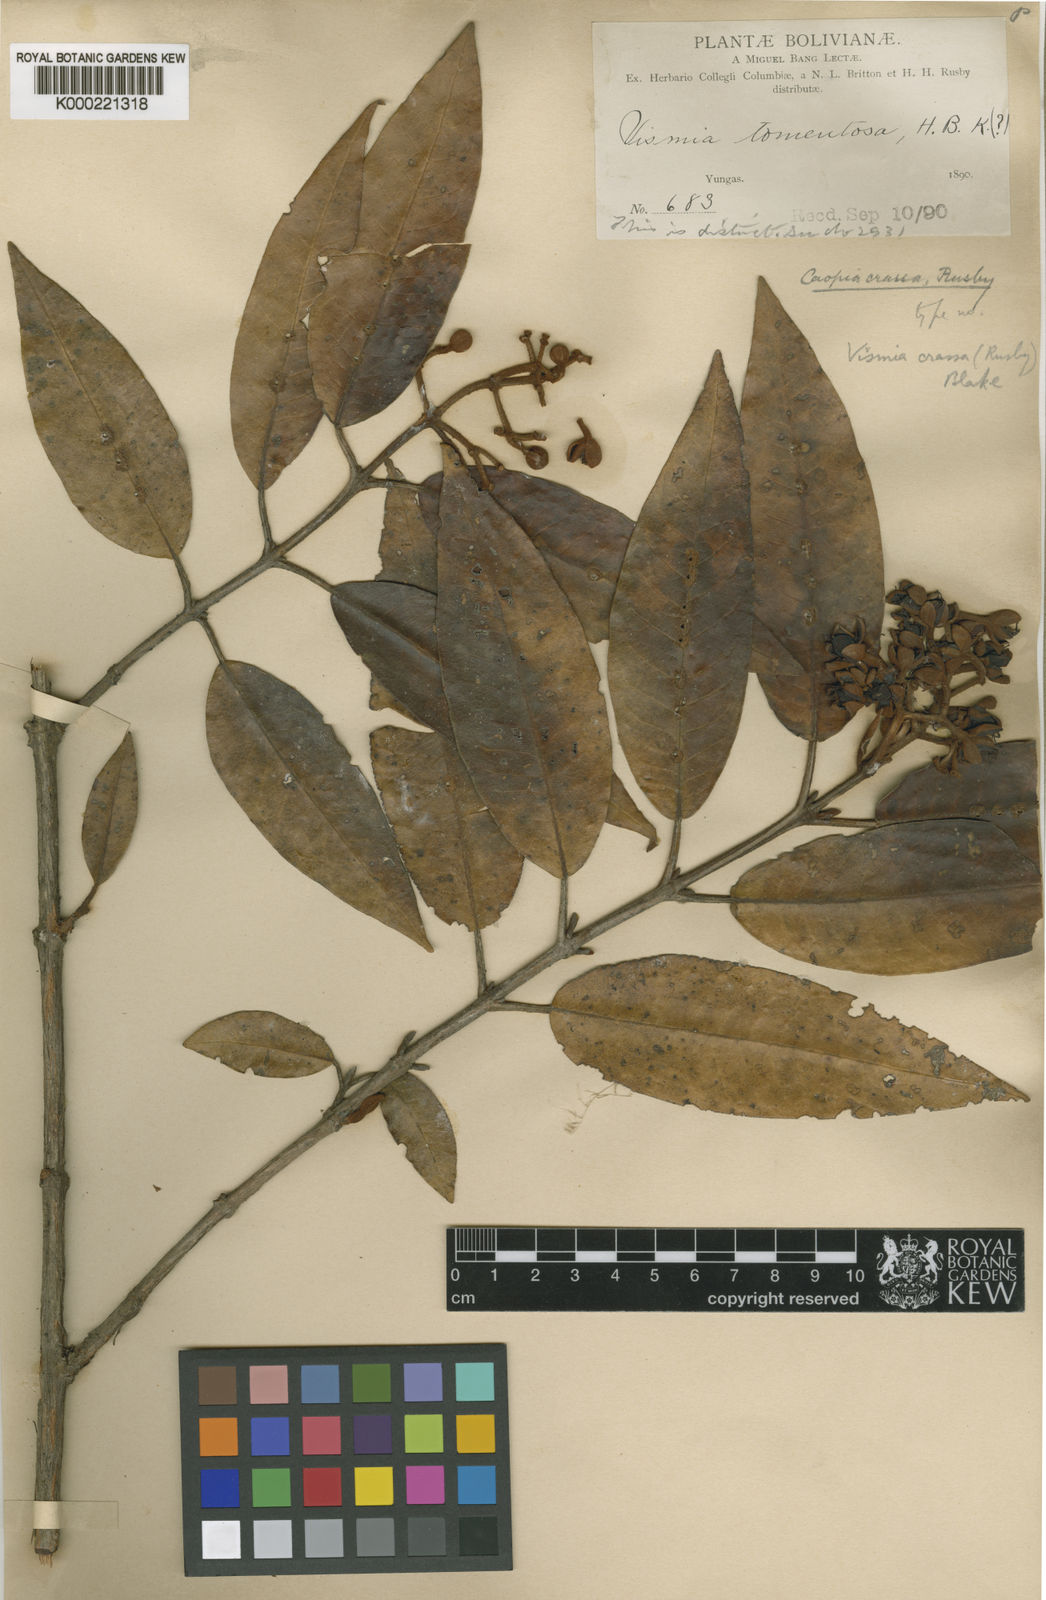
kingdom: Plantae
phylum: Tracheophyta
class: Magnoliopsida
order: Malpighiales
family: Hypericaceae
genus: Vismia
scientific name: Vismia crassa
